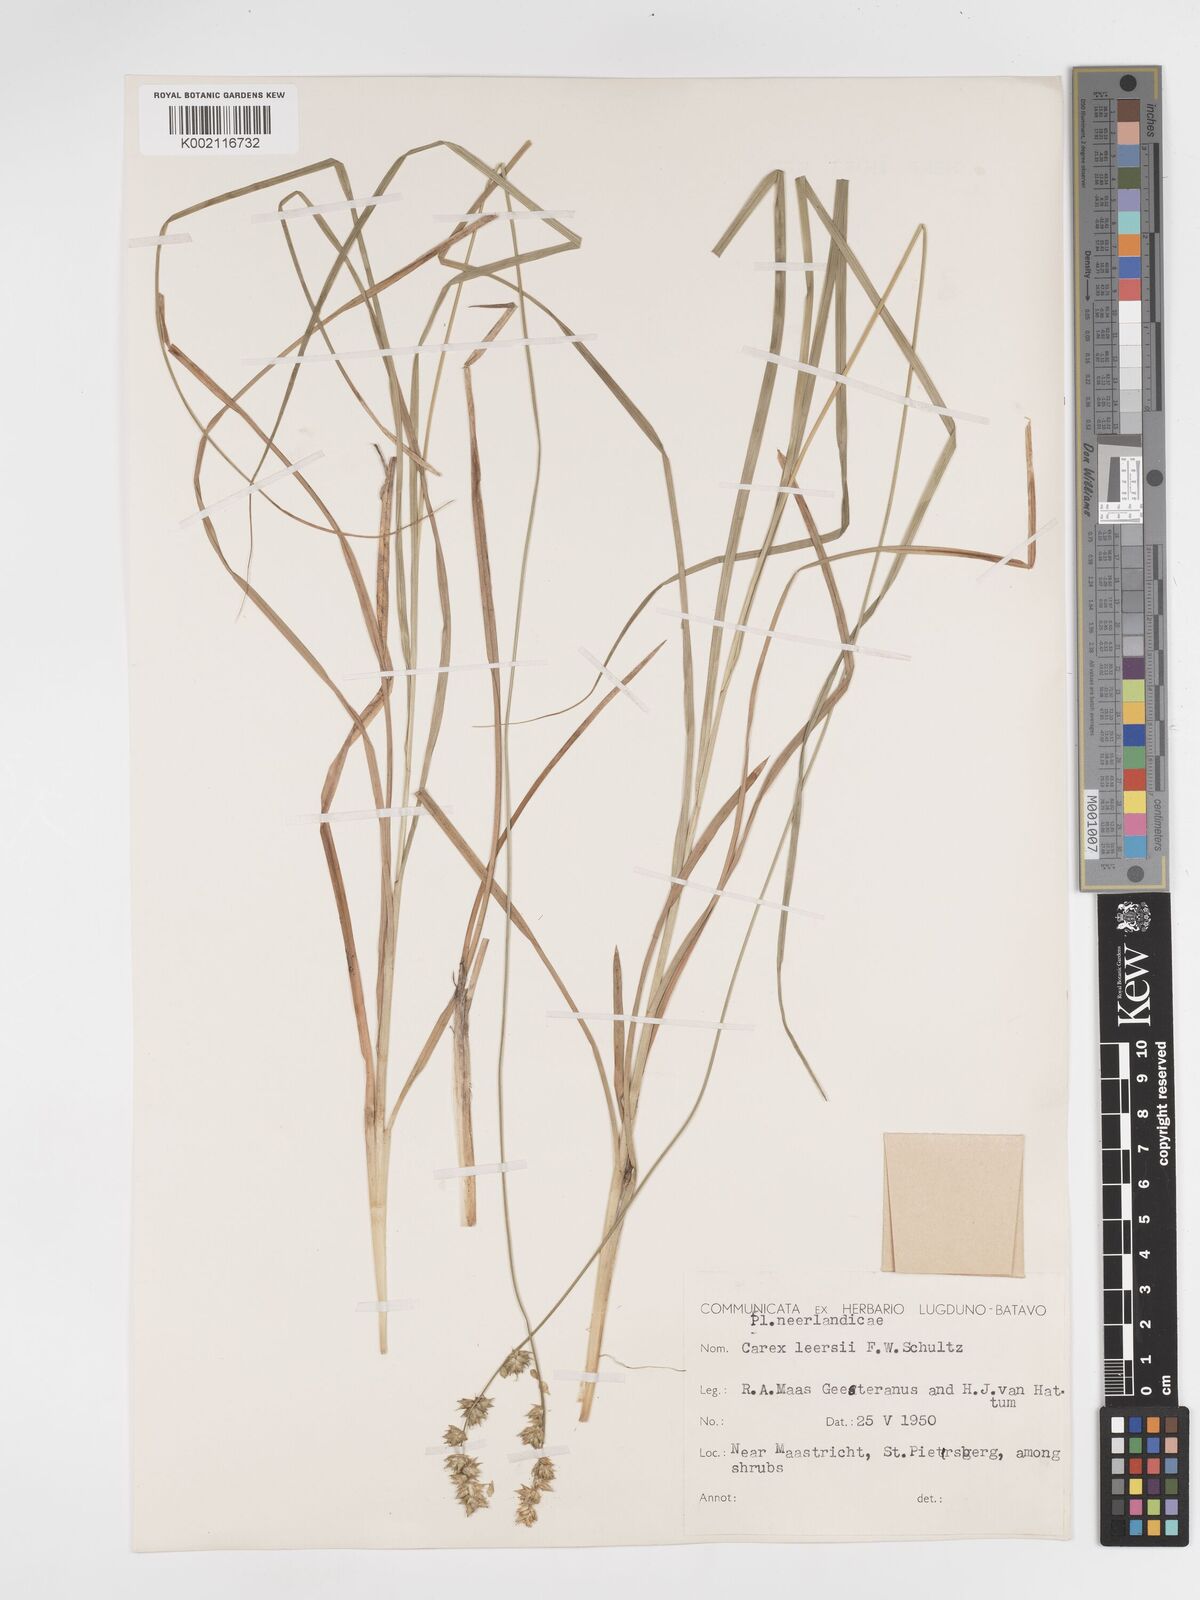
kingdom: Plantae
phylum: Tracheophyta
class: Liliopsida
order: Poales
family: Cyperaceae
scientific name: Cyperaceae
